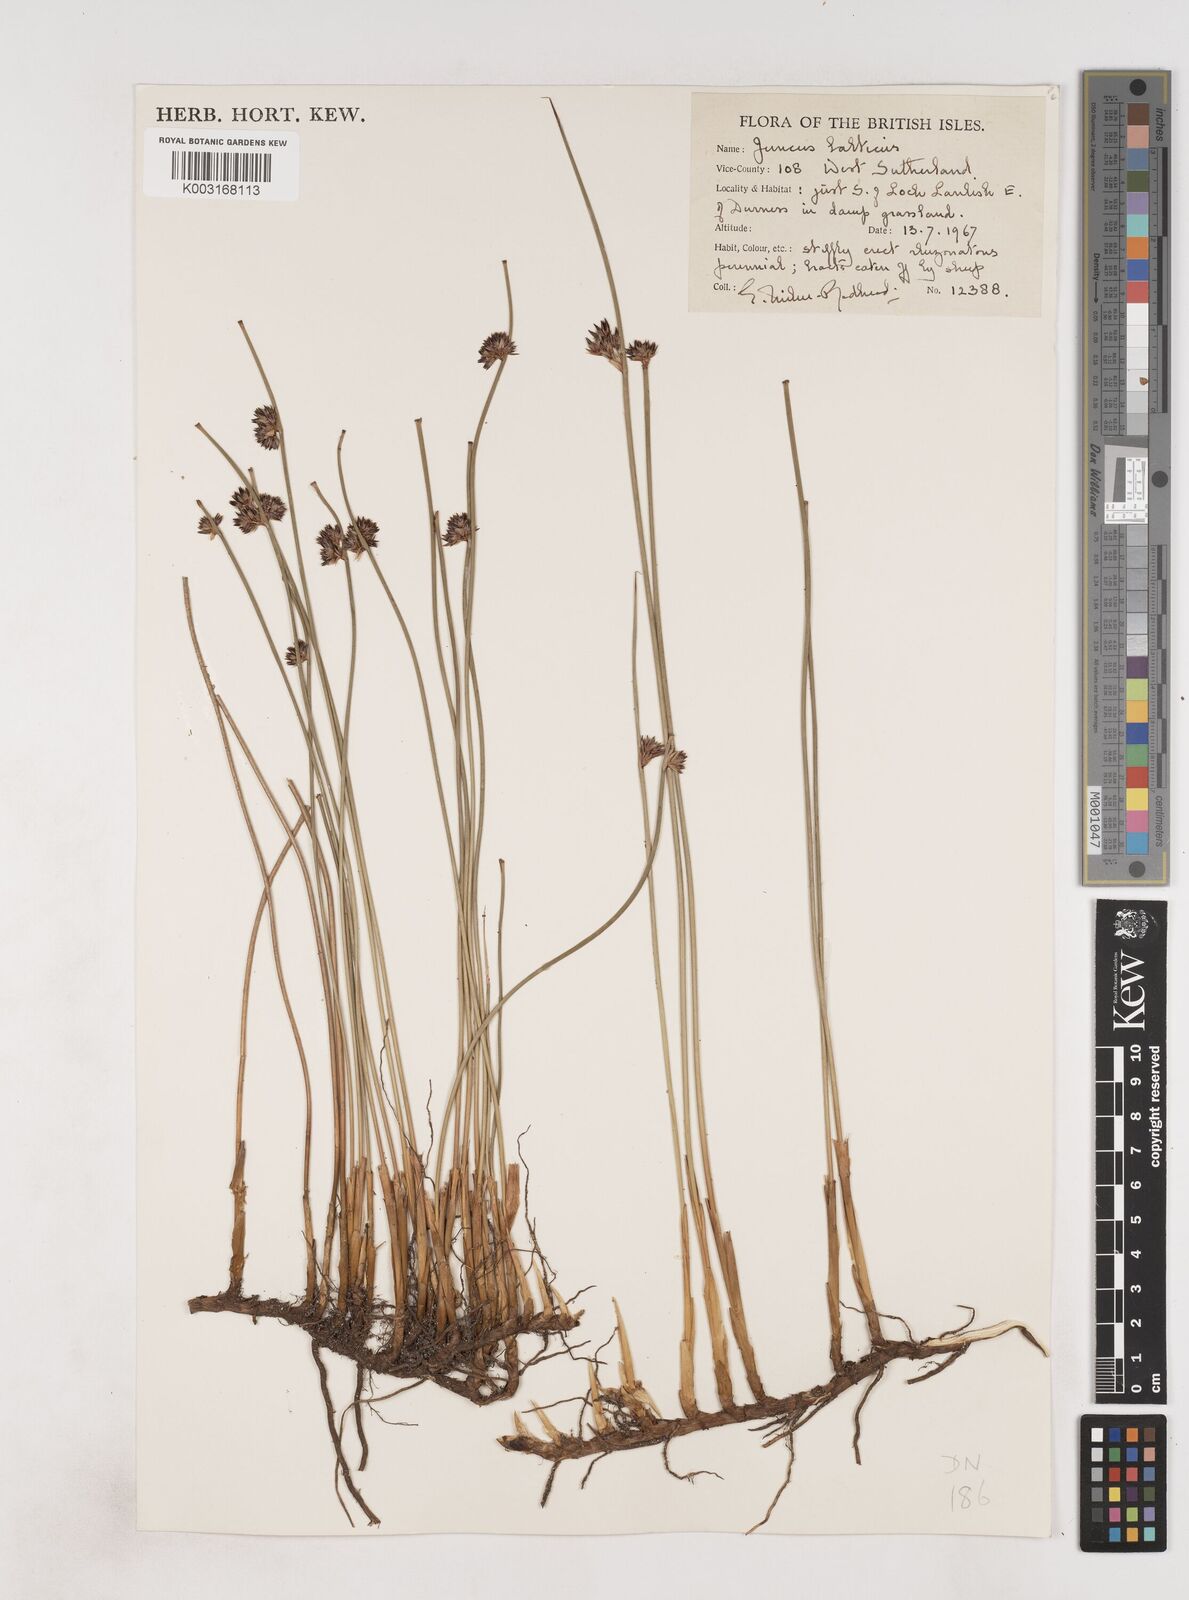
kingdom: Plantae
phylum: Tracheophyta
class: Liliopsida
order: Poales
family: Juncaceae
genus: Juncus
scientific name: Juncus balticus
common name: Baltic rush
